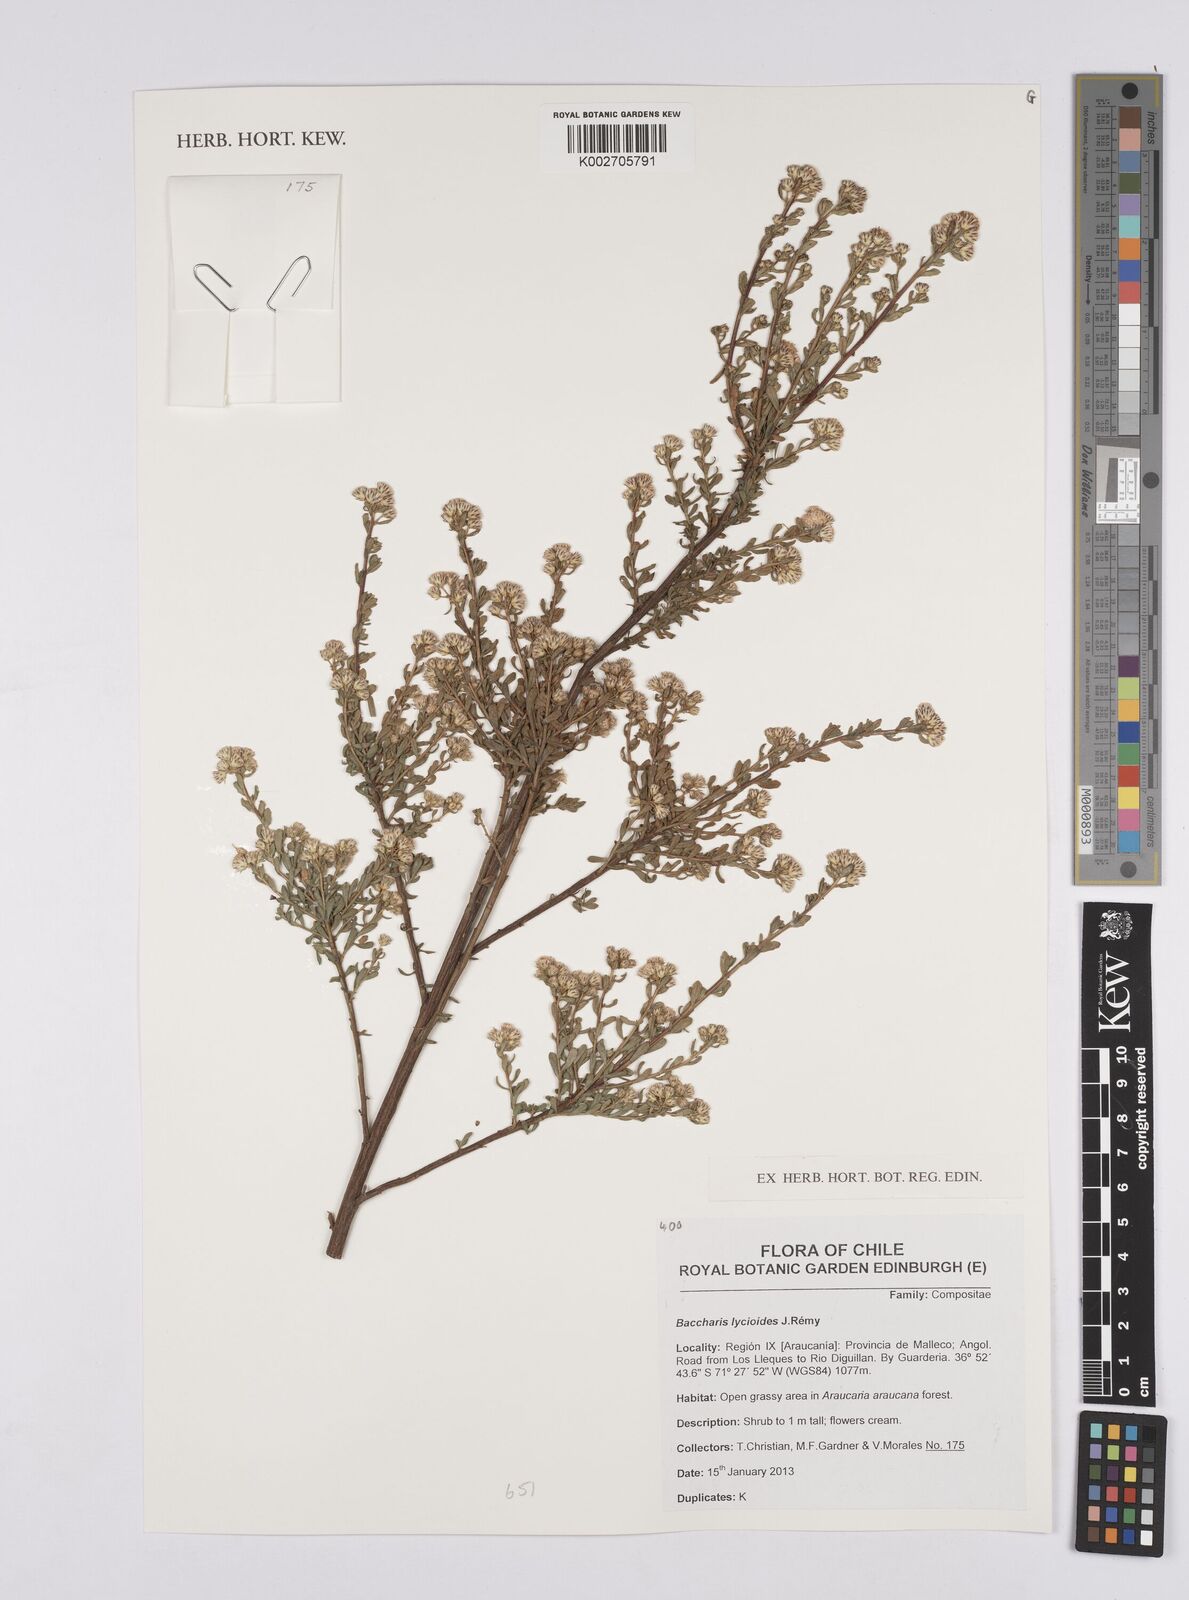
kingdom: Plantae
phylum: Tracheophyta
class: Magnoliopsida
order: Asterales
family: Asteraceae
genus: Baccharis
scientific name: Baccharis lycioides
